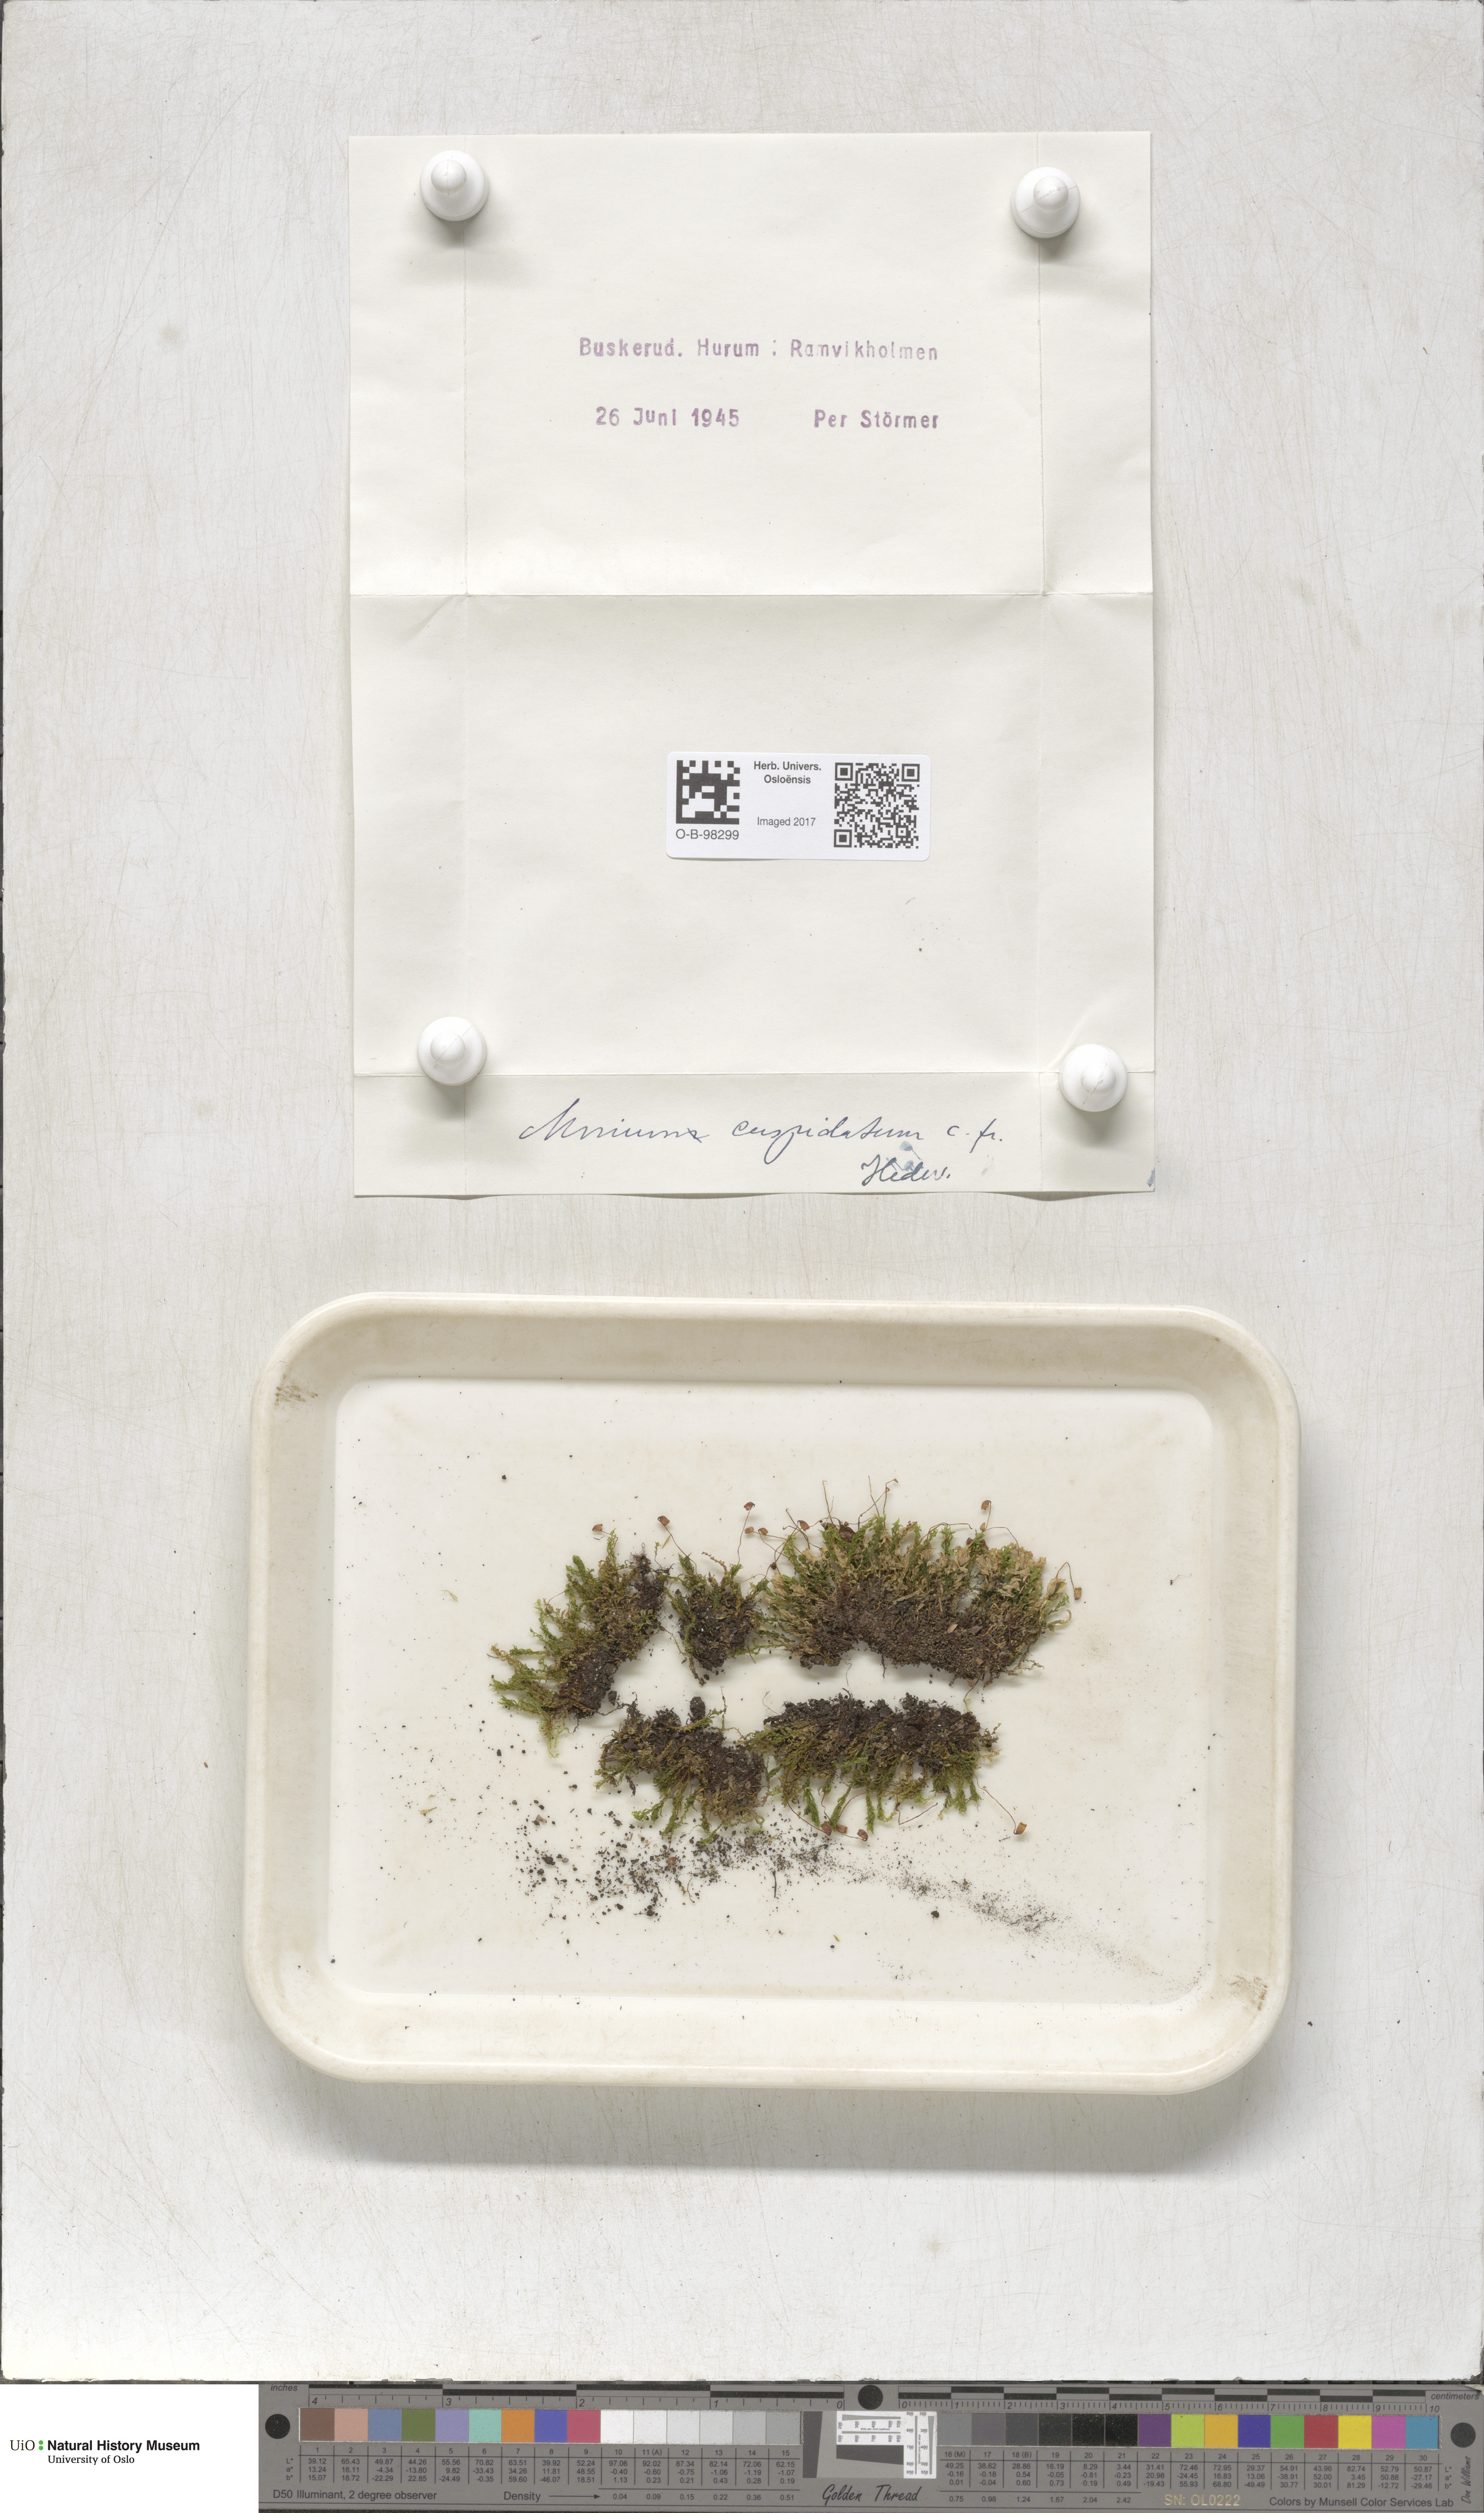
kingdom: Plantae
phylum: Bryophyta
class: Bryopsida
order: Bryales
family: Mniaceae
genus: Plagiomnium
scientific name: Plagiomnium cuspidatum
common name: Woodsy leafy moss
